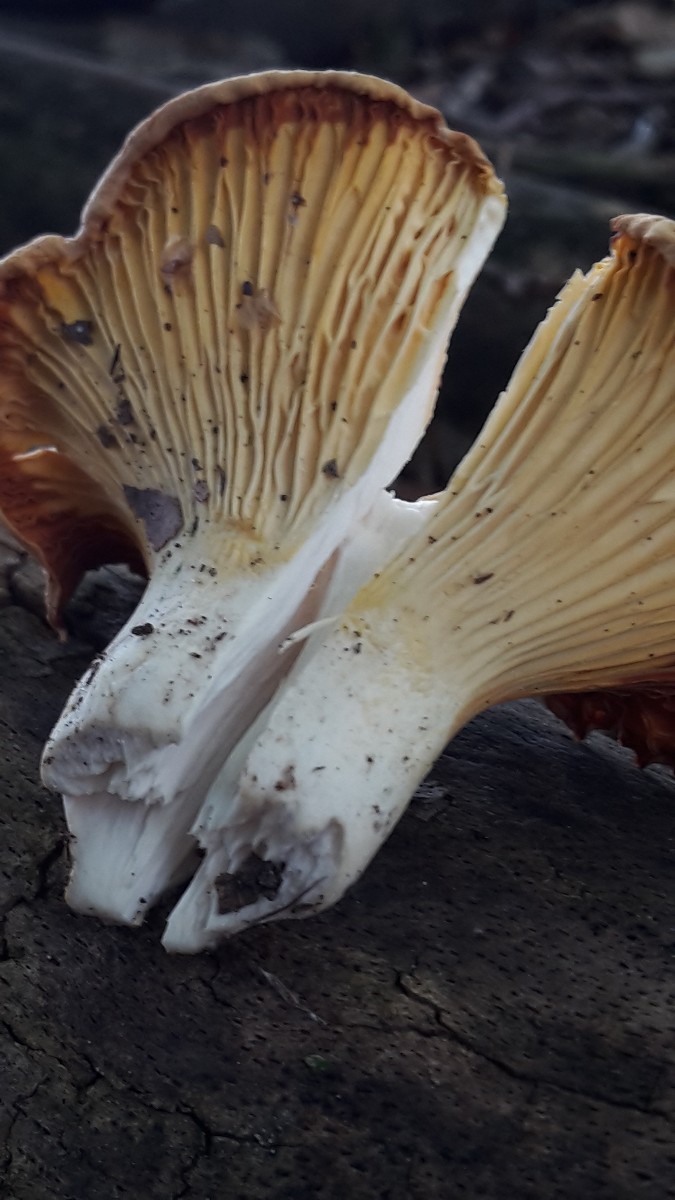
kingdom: Fungi
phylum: Basidiomycota
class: Agaricomycetes
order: Cantharellales
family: Hydnaceae
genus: Cantharellus
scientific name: Cantharellus pallens
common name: bleg kantarel
